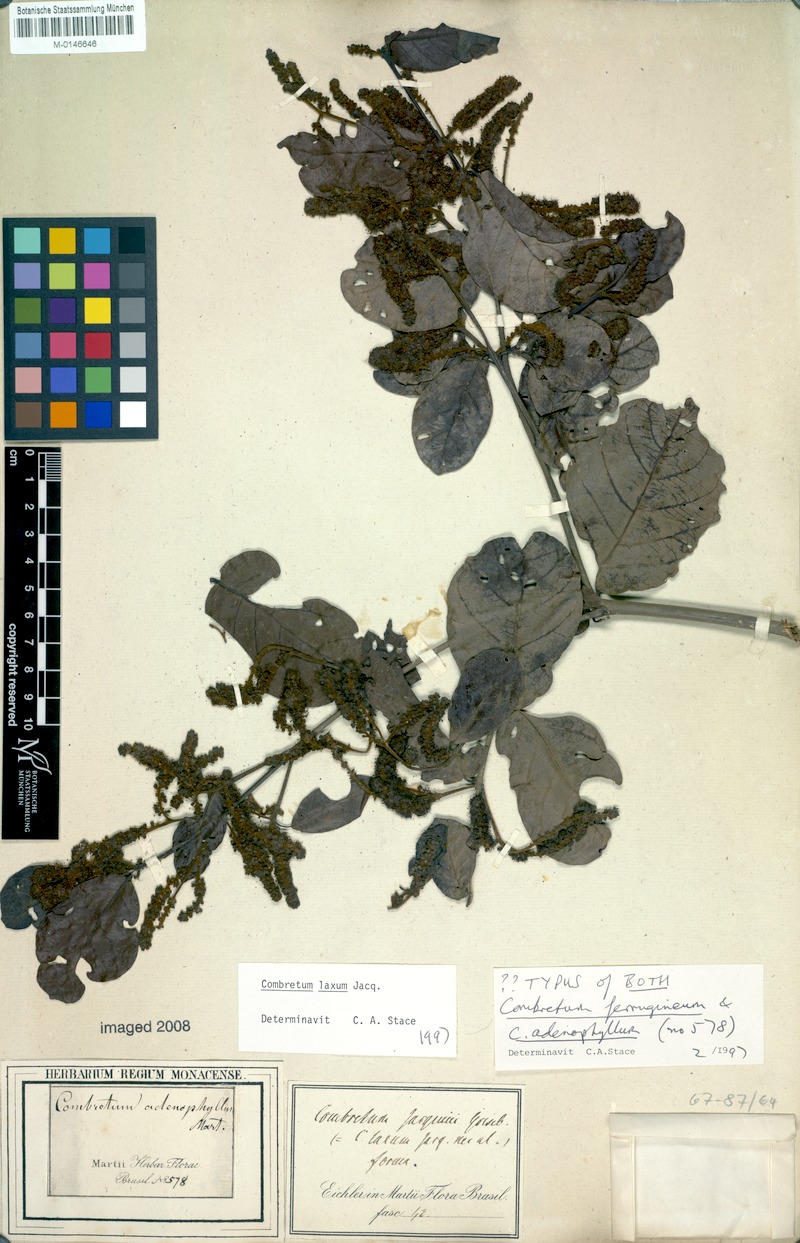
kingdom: Plantae
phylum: Tracheophyta
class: Magnoliopsida
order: Myrtales
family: Combretaceae
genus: Combretum
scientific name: Combretum laxum
